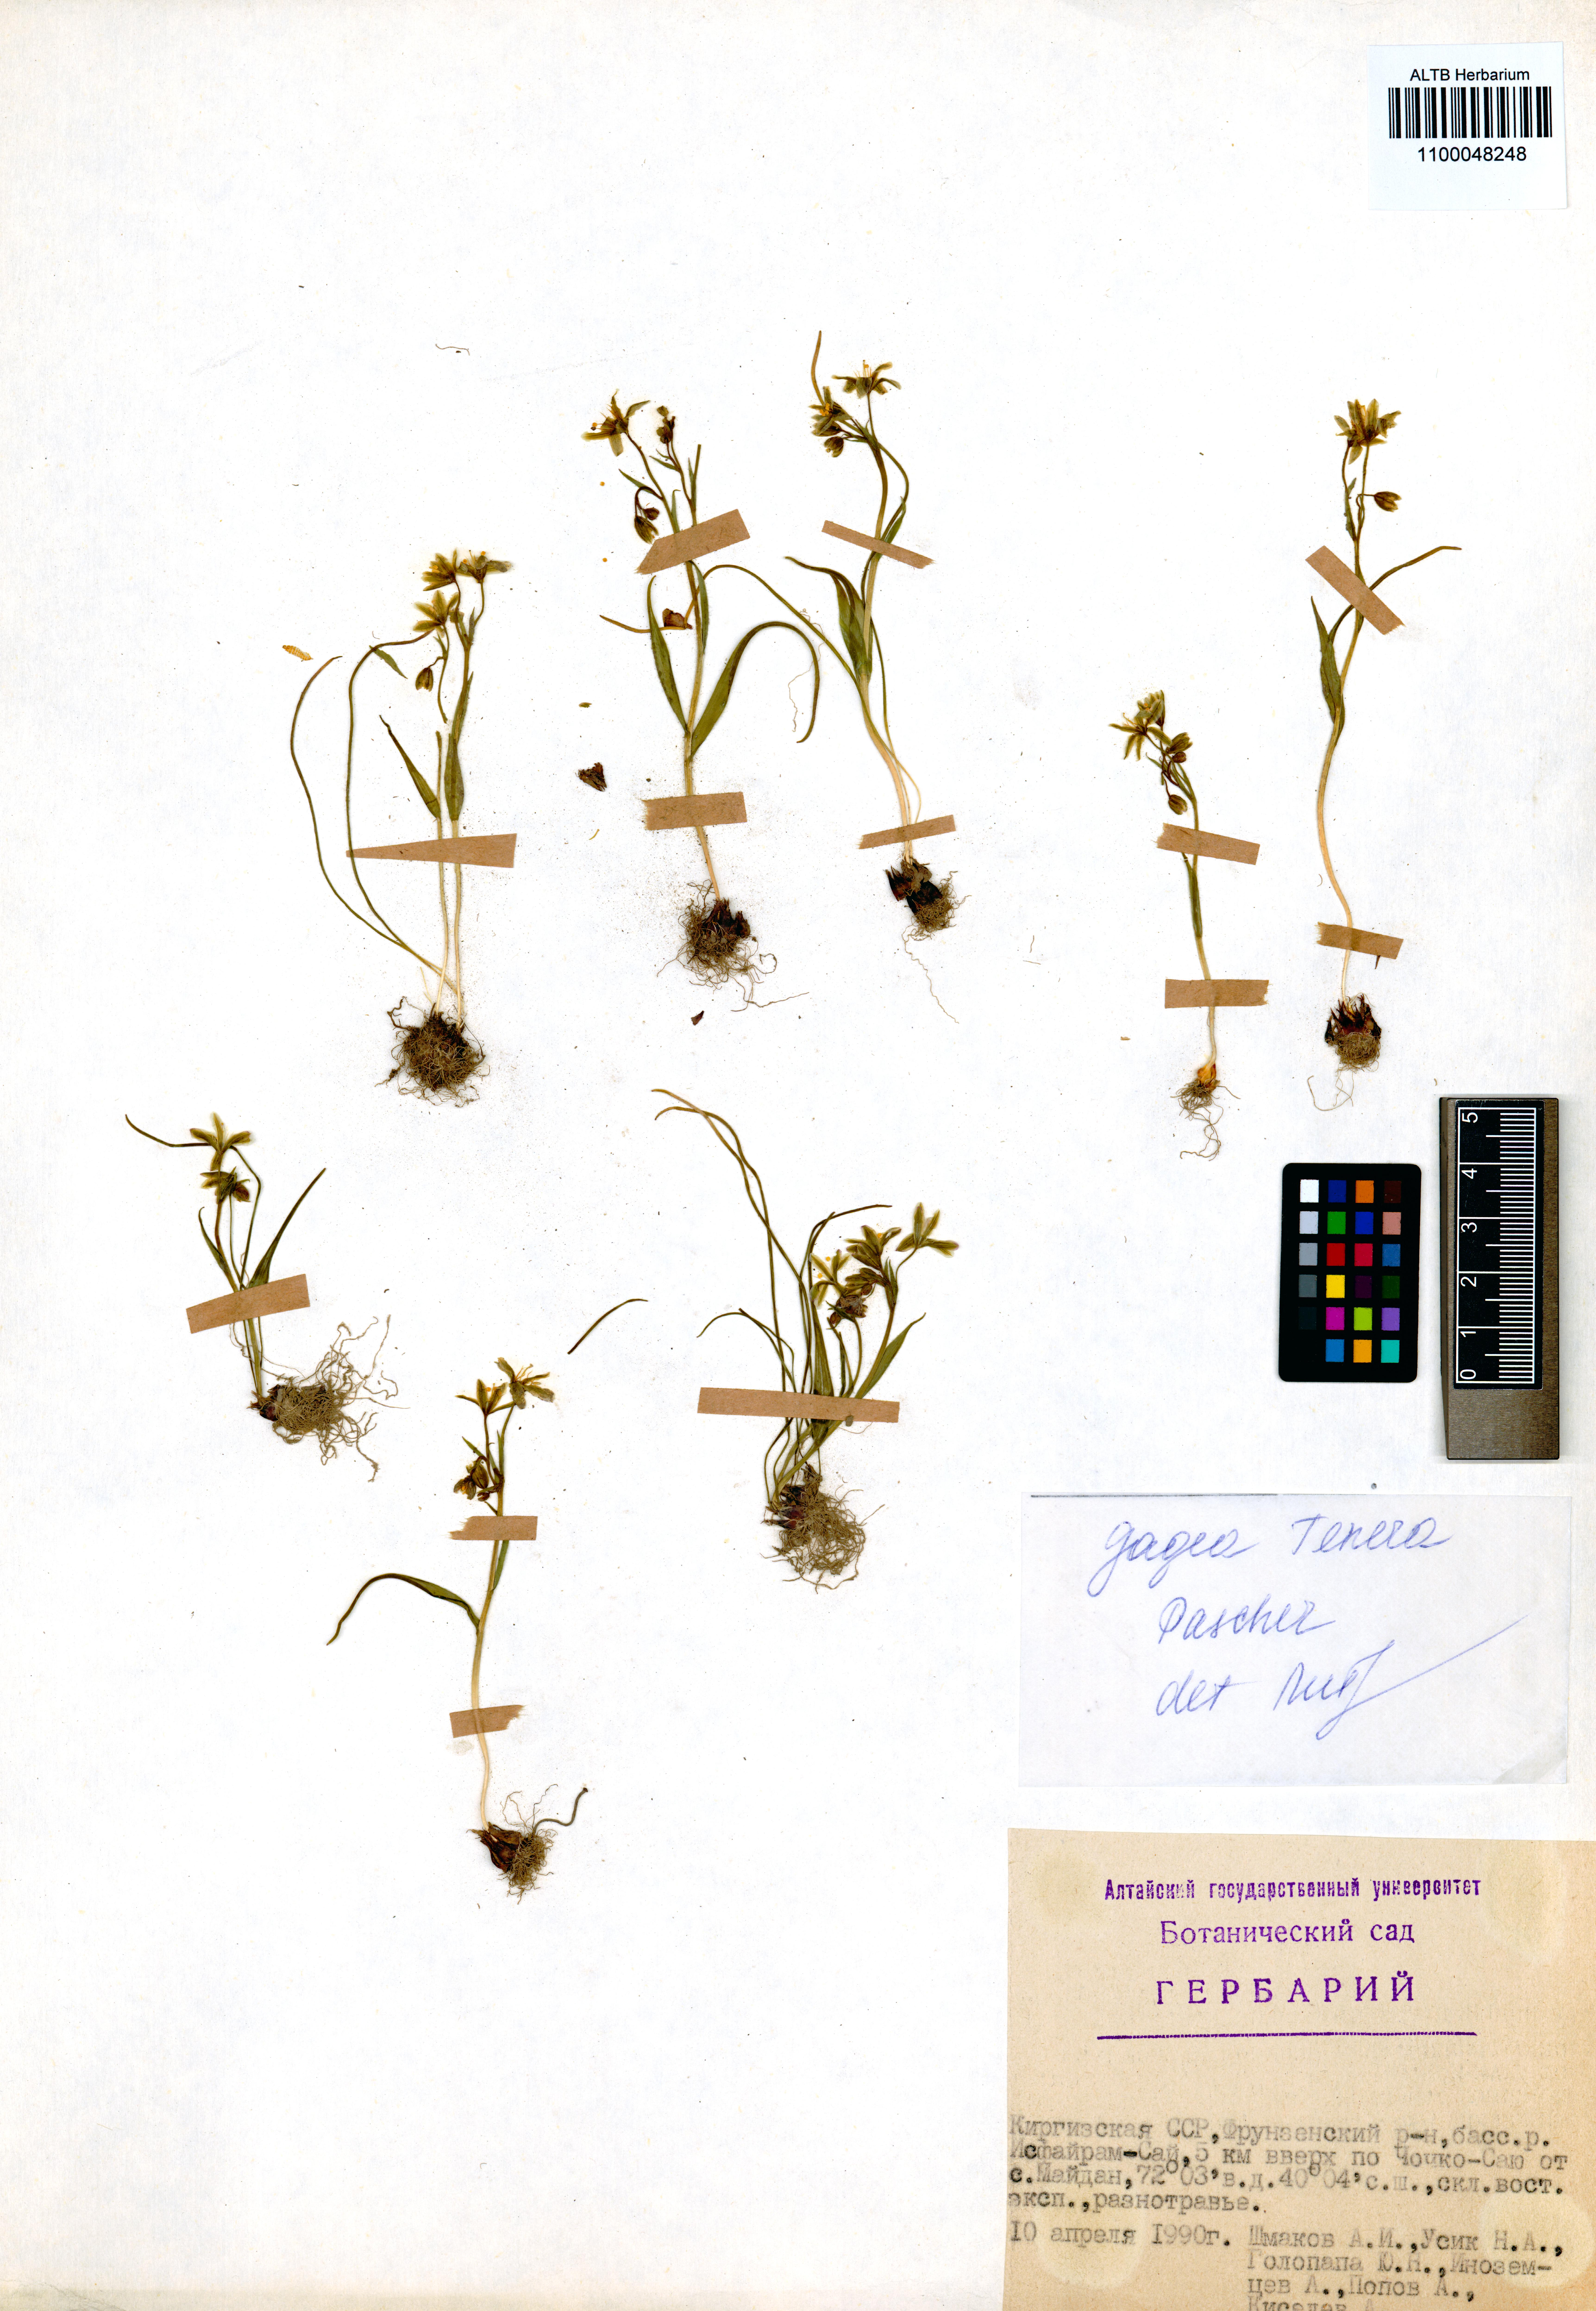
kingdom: Plantae
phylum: Tracheophyta
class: Liliopsida
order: Liliales
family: Liliaceae
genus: Gagea
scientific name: Gagea tenera
